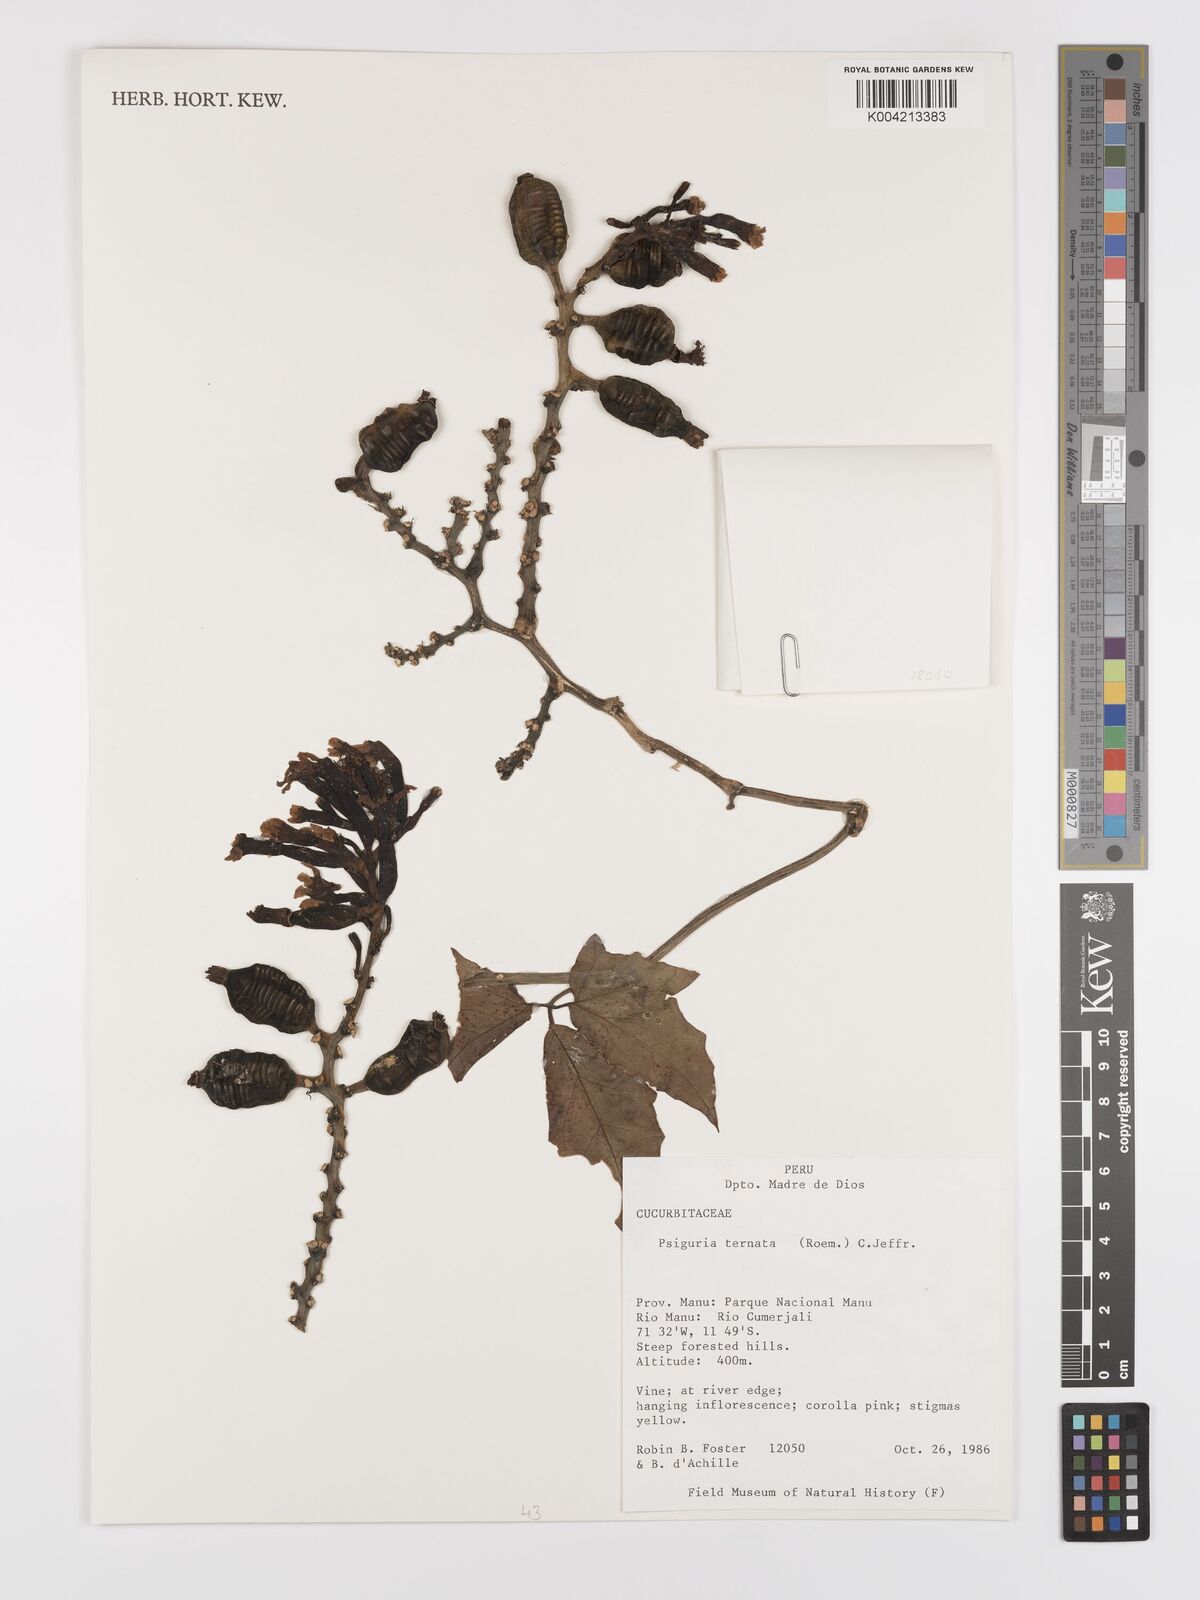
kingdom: Plantae
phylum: Tracheophyta
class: Magnoliopsida
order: Cucurbitales
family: Cucurbitaceae
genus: Psiguria
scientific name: Psiguria ternata
